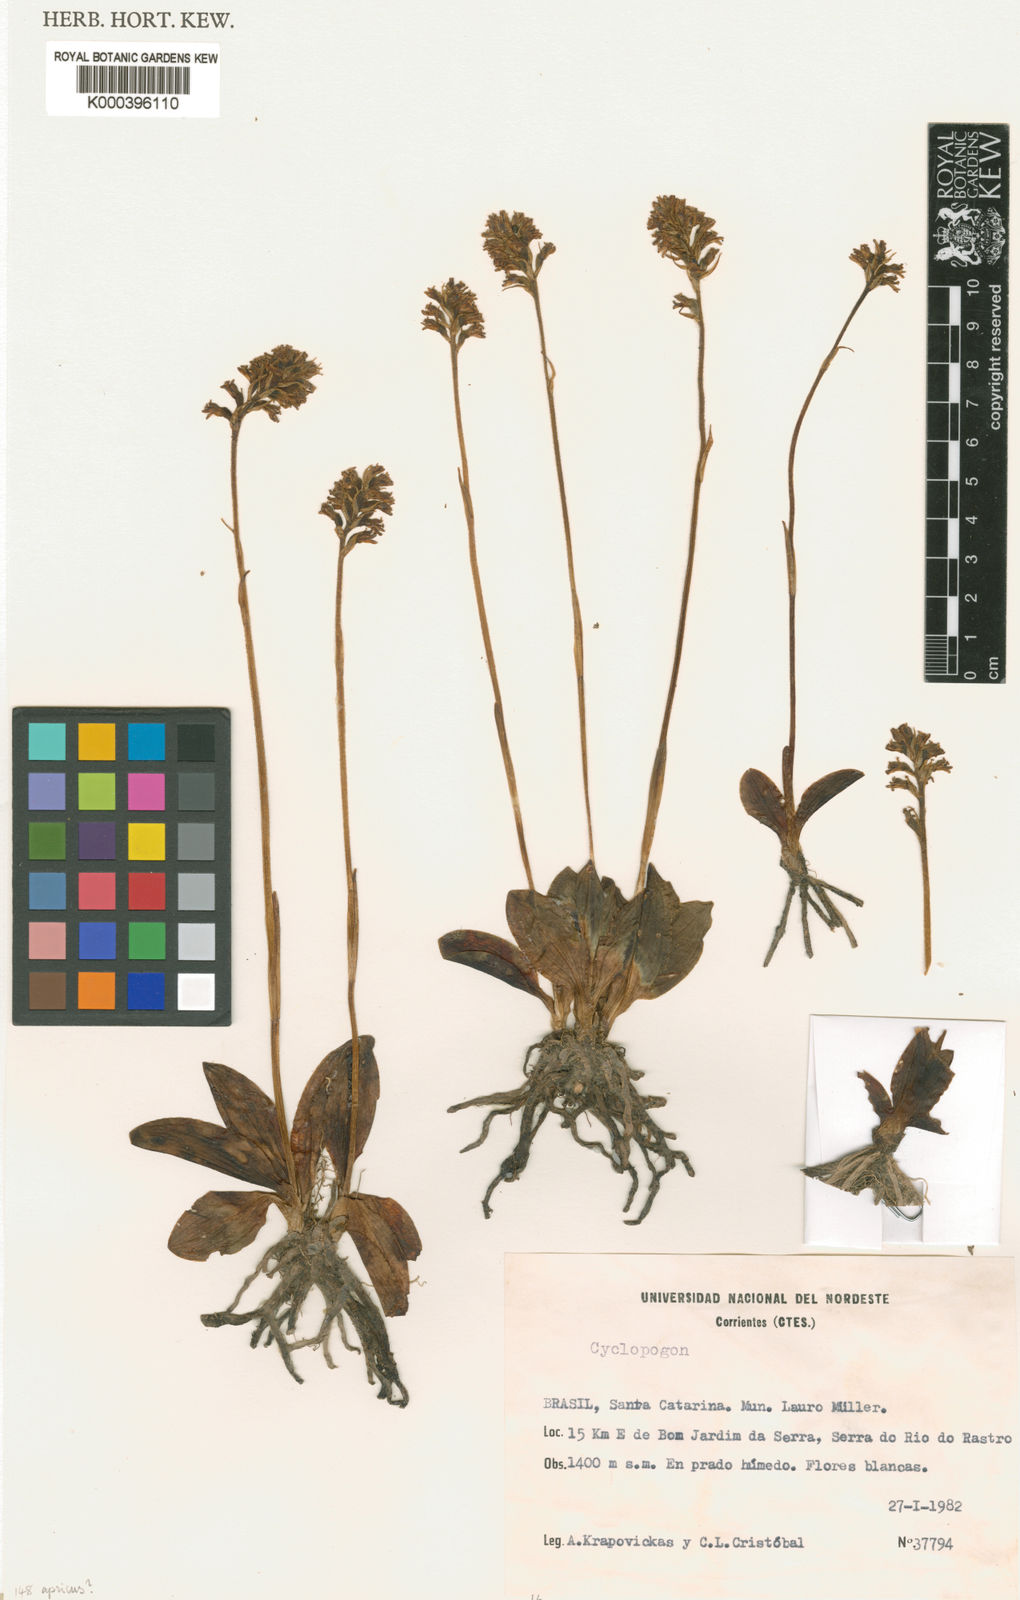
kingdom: Plantae
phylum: Tracheophyta
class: Liliopsida
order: Asparagales
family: Orchidaceae
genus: Cyclopogon
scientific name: Cyclopogon apricus
